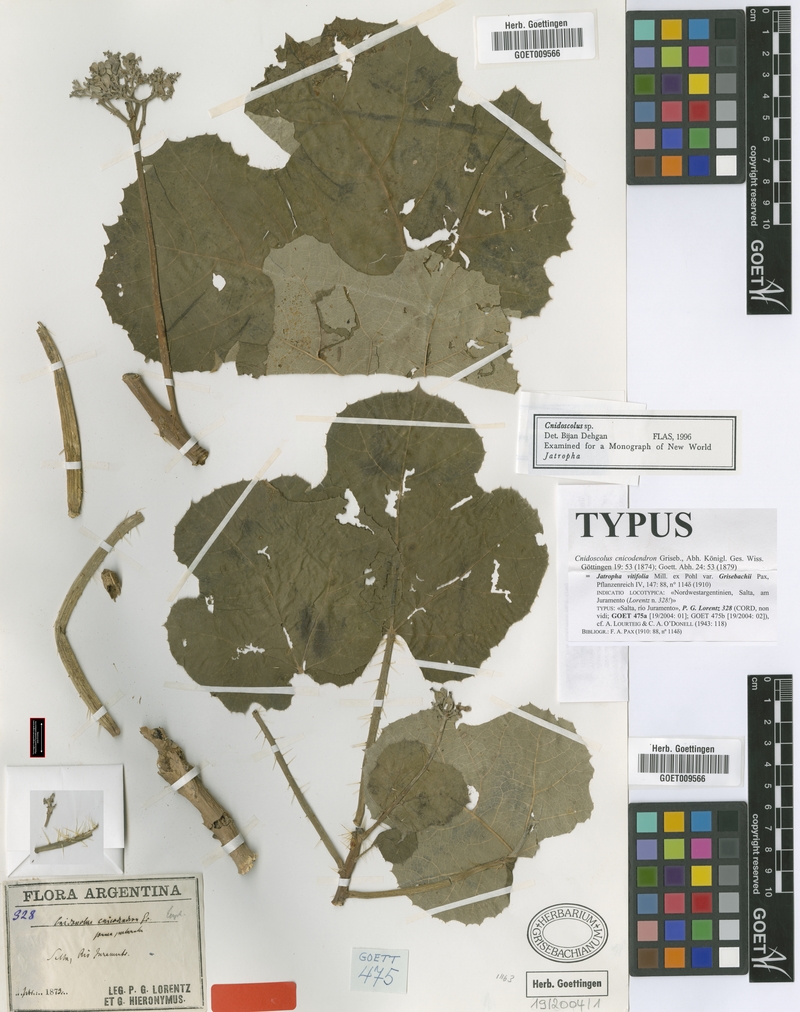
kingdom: Plantae
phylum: Tracheophyta
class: Magnoliopsida
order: Malpighiales
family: Euphorbiaceae
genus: Cnidoscolus
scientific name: Cnidoscolus cnicodendron
